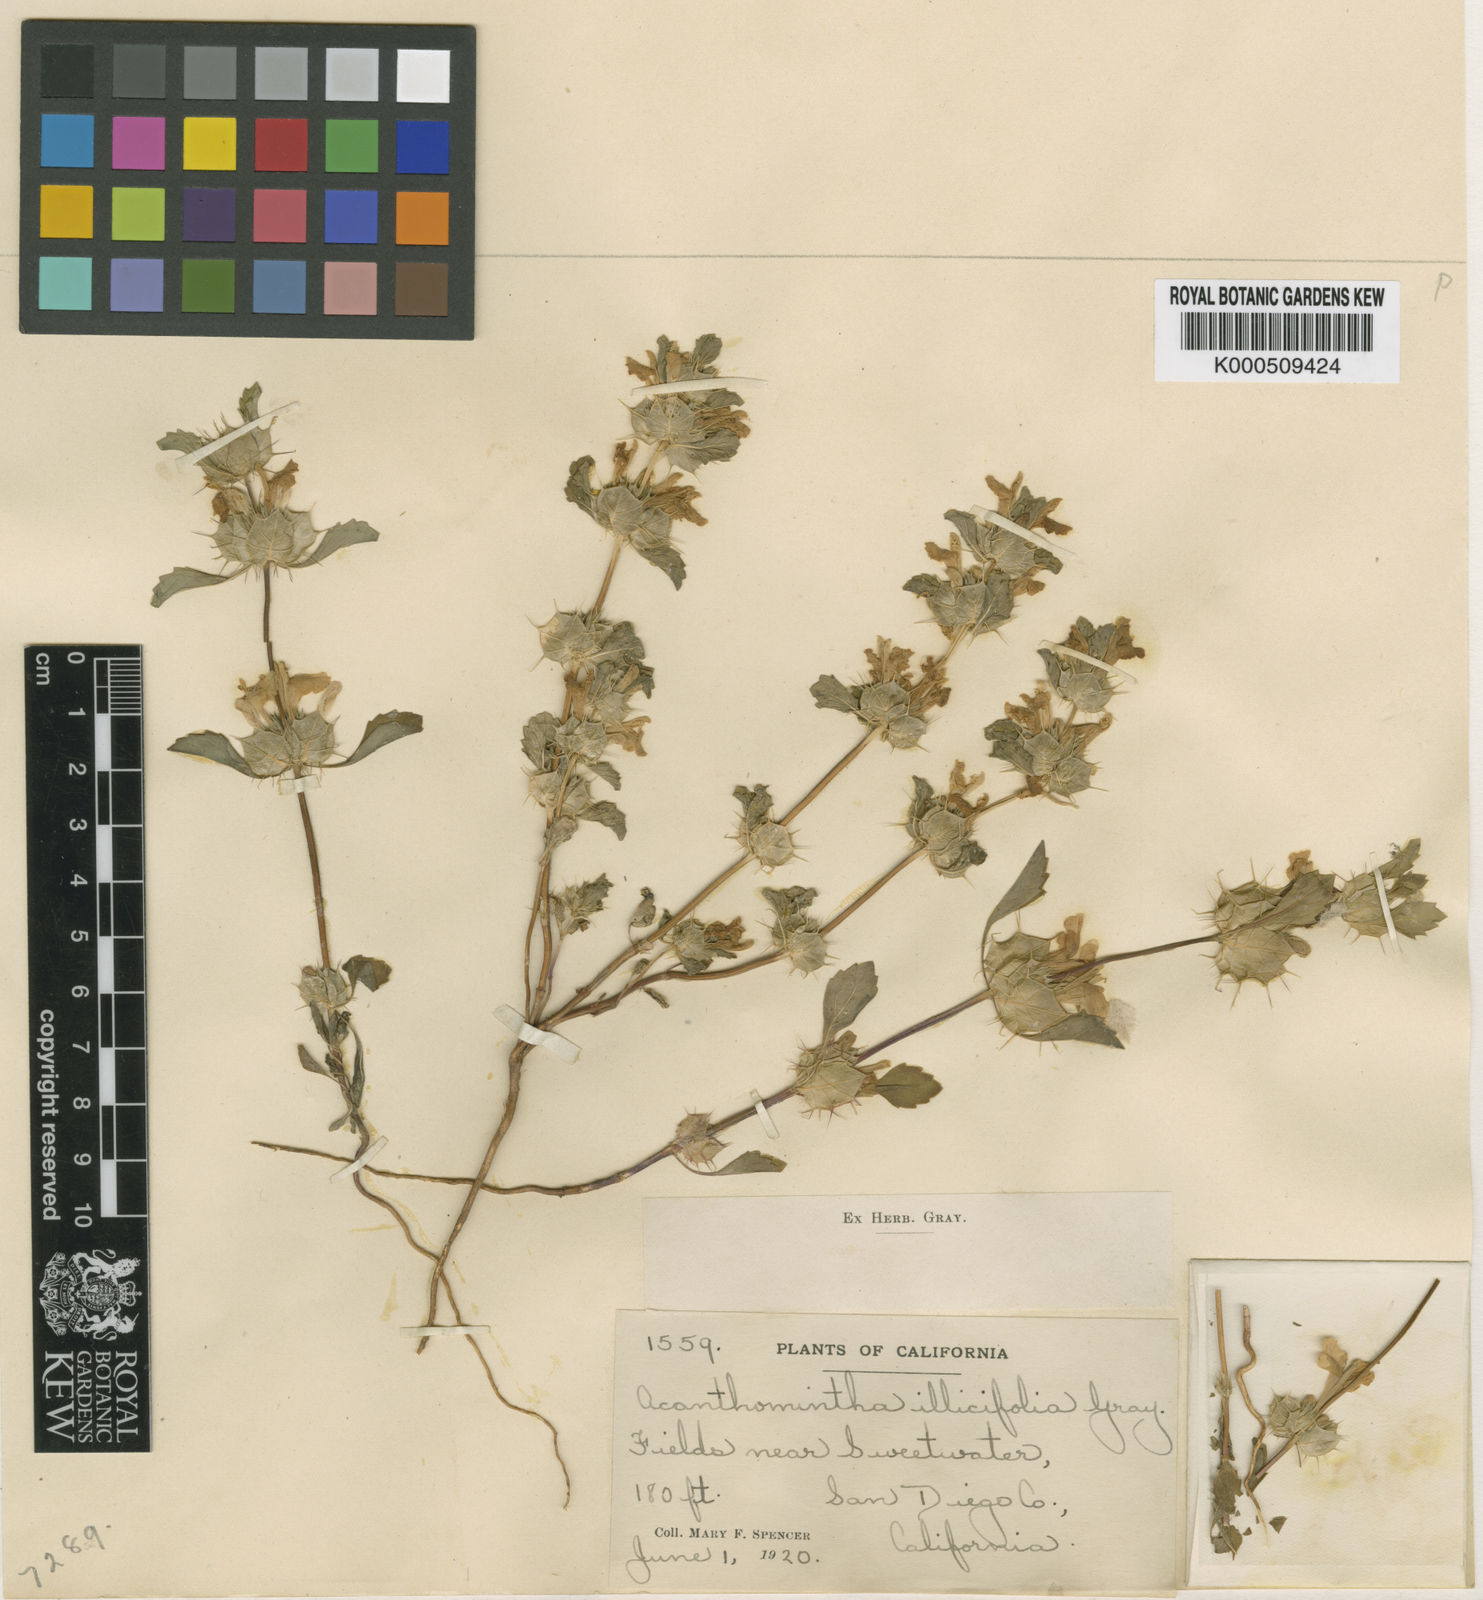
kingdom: Plantae
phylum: Tracheophyta
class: Magnoliopsida
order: Lamiales
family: Lamiaceae
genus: Acanthomintha
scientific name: Acanthomintha ilicifolia
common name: San diego thorn-mint
